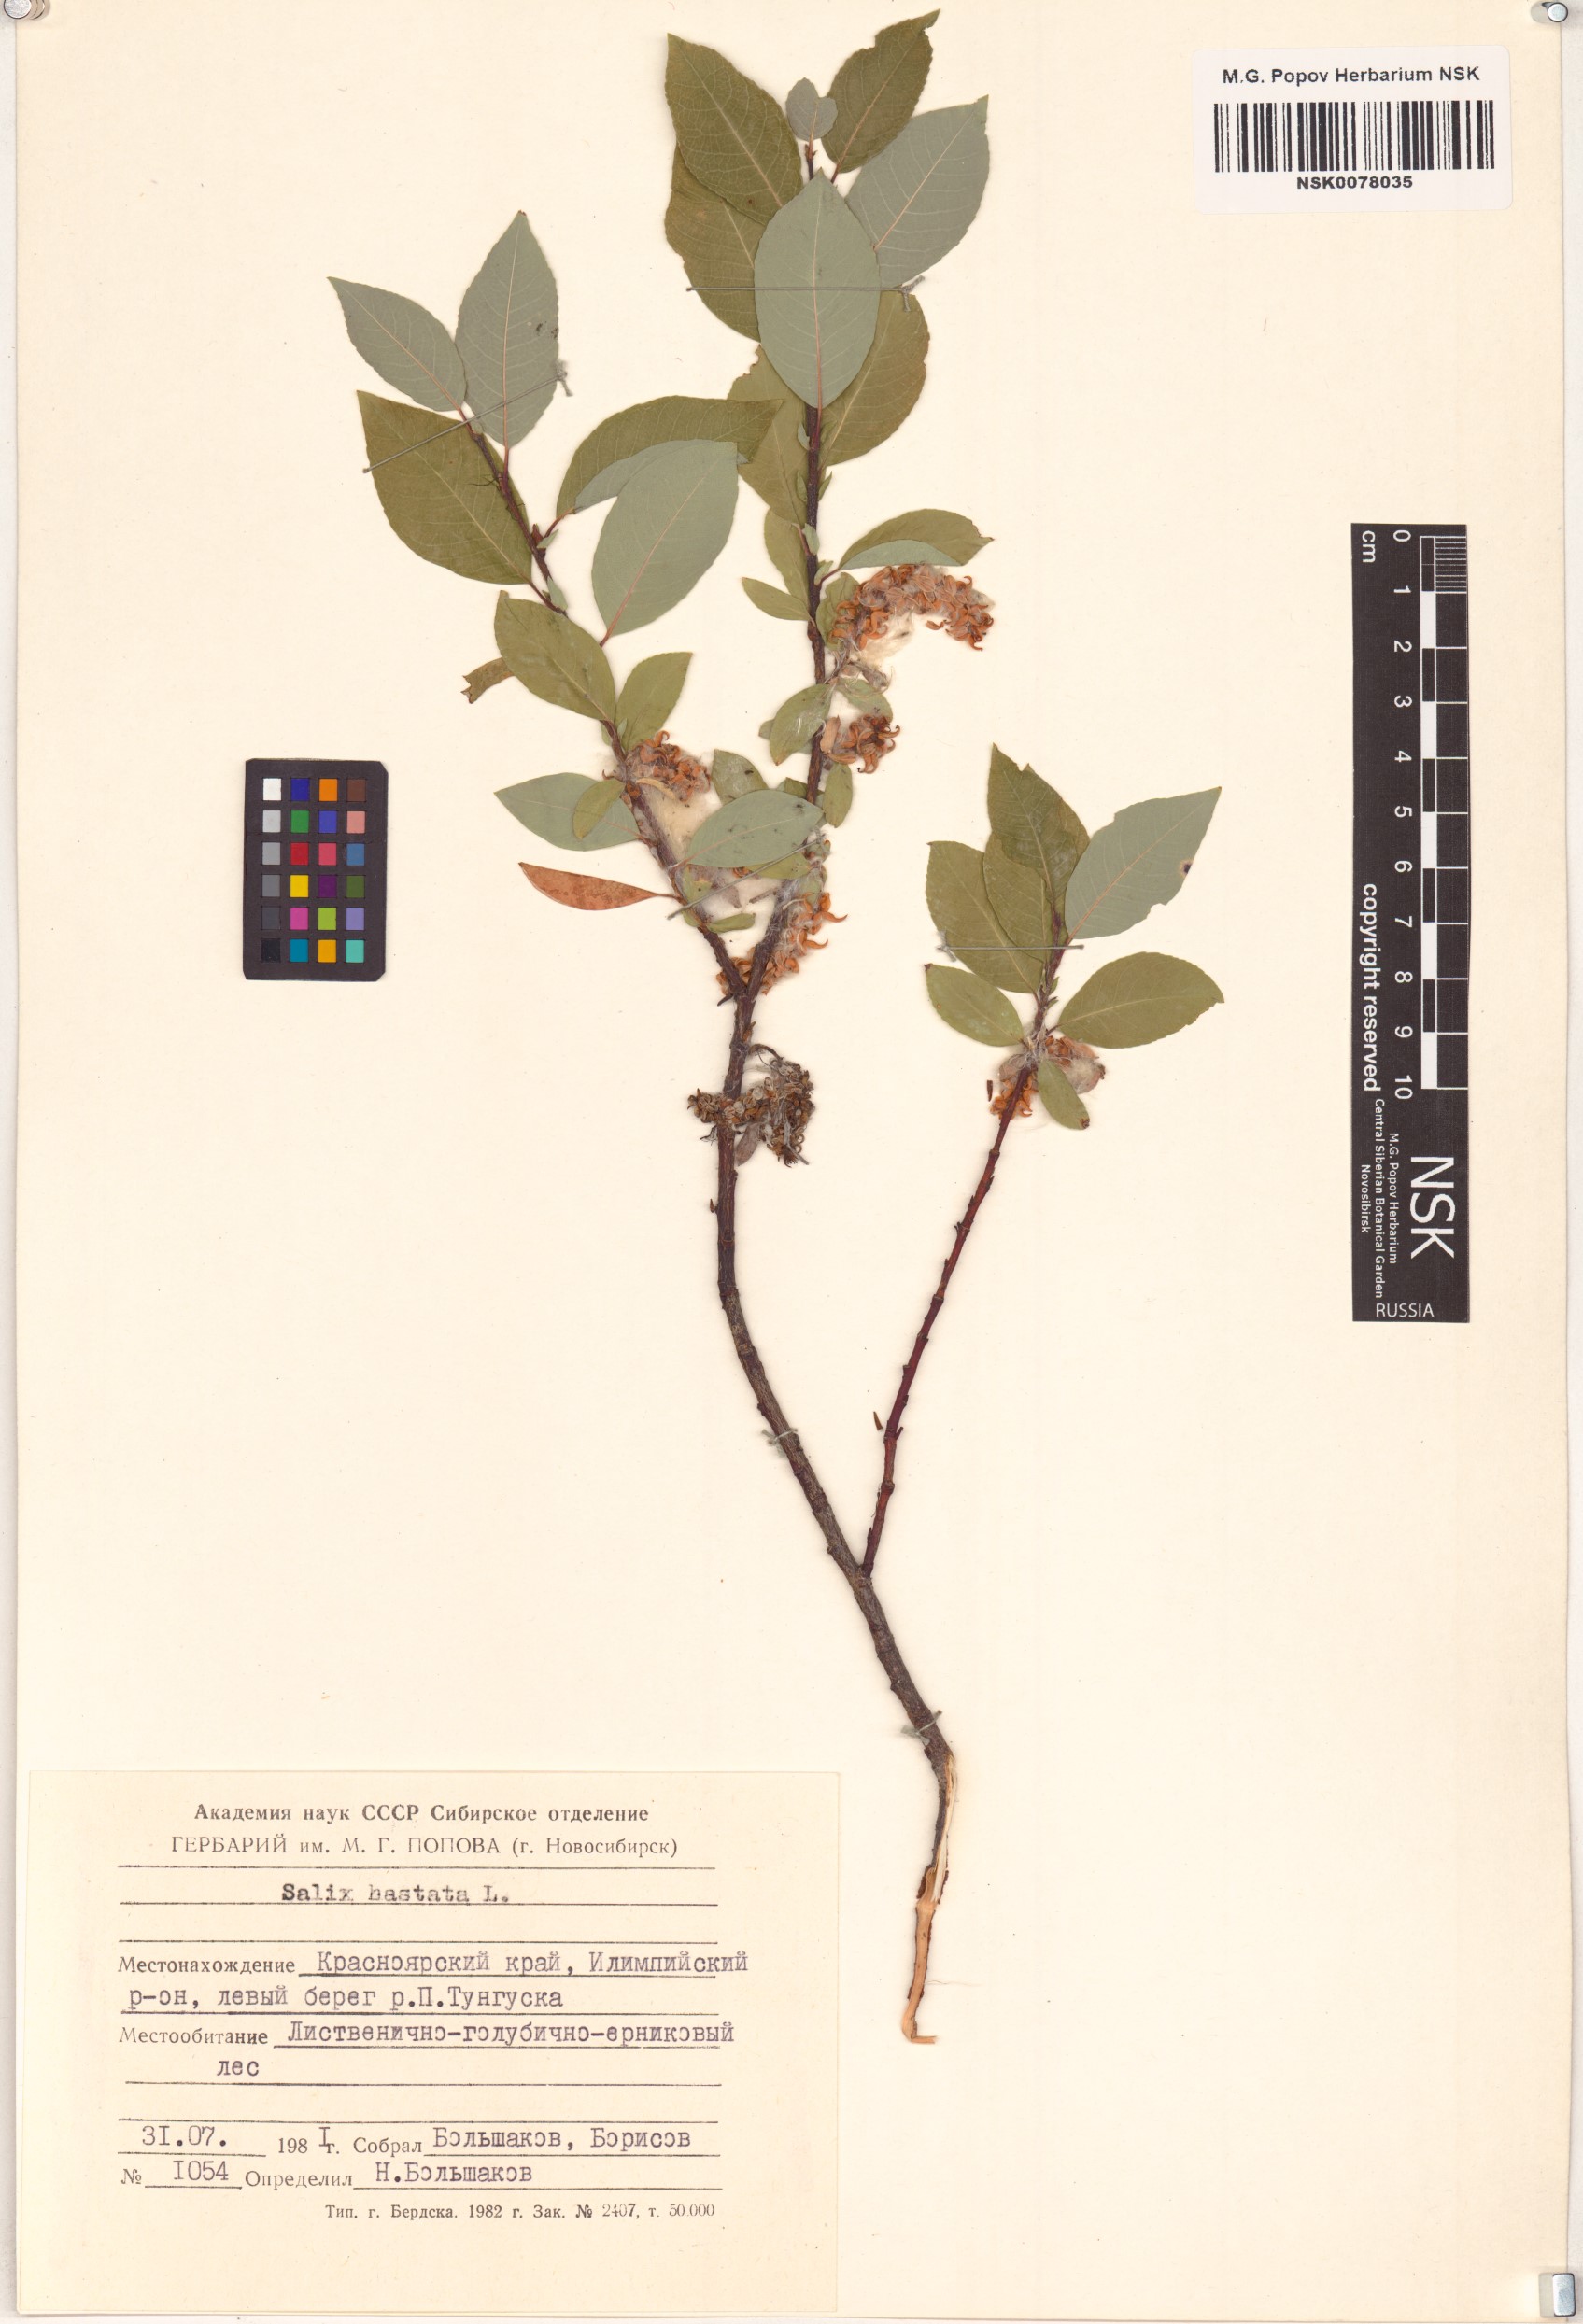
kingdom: Plantae
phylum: Tracheophyta
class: Magnoliopsida
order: Malpighiales
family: Salicaceae
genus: Salix
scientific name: Salix hastata
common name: Halberd willow
